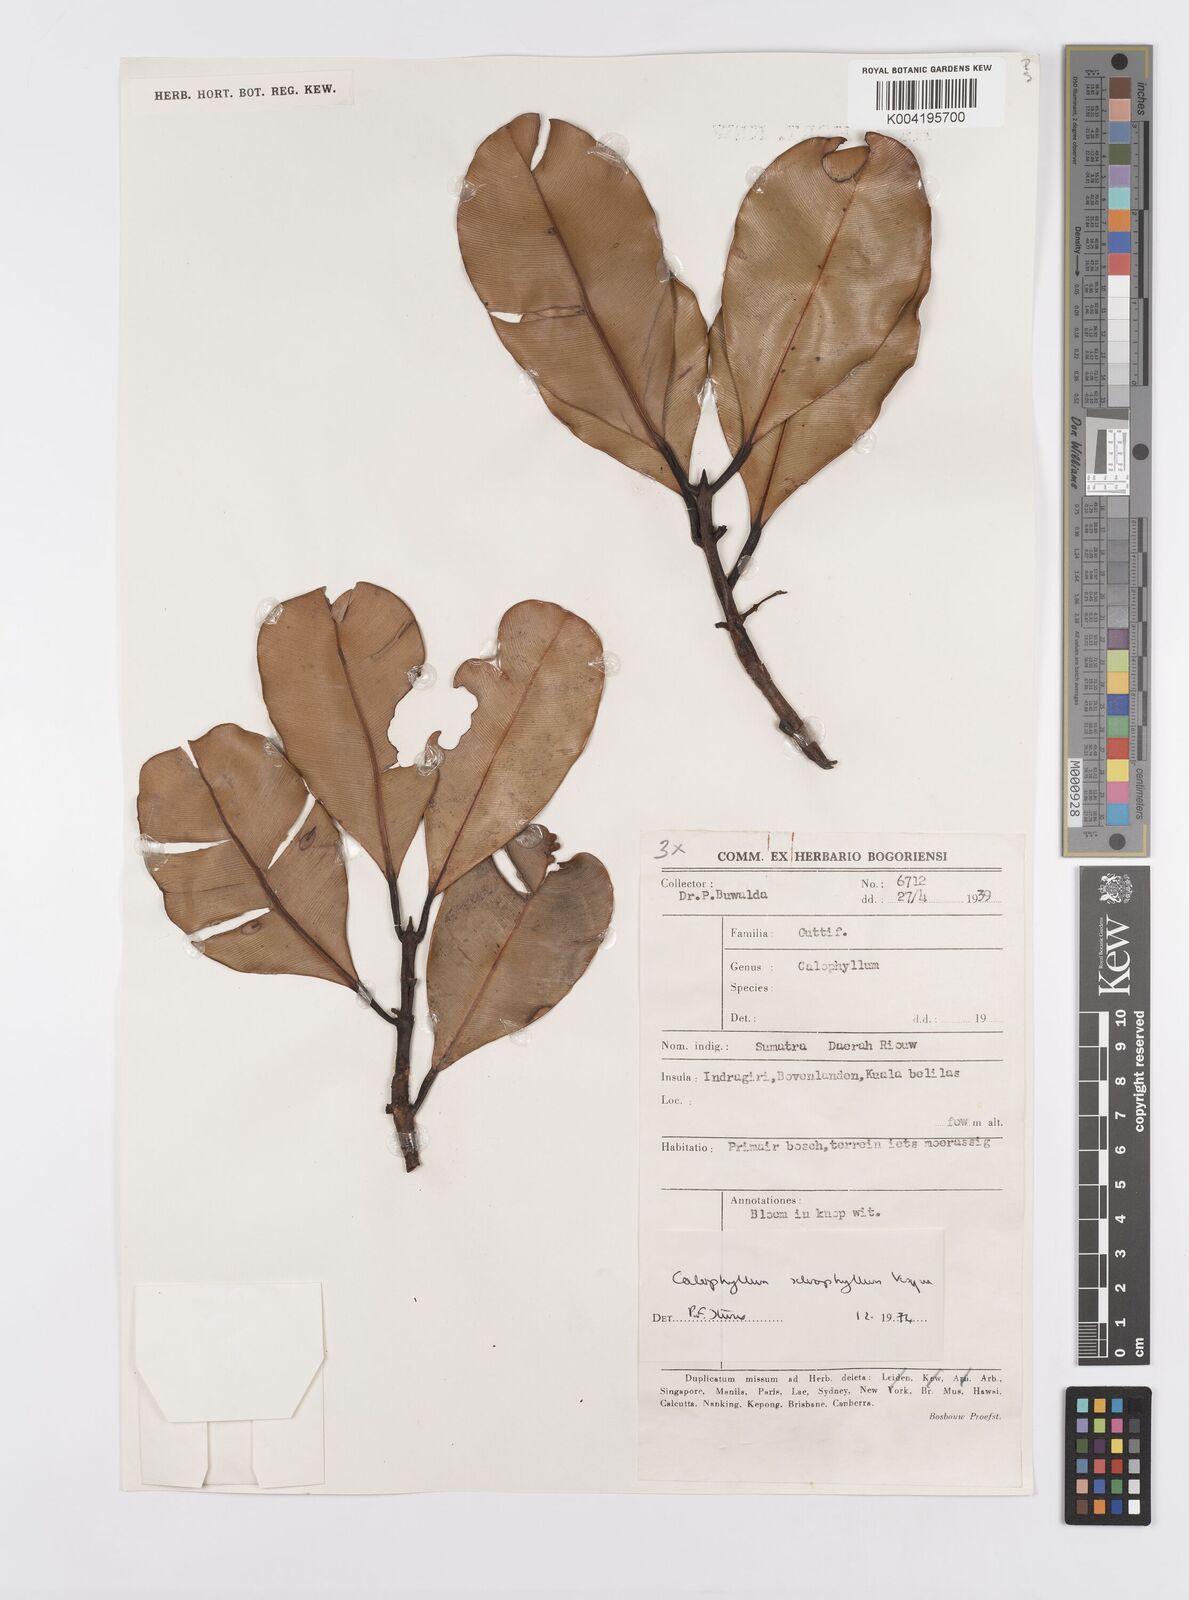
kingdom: Plantae
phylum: Tracheophyta
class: Magnoliopsida
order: Malpighiales
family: Calophyllaceae
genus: Calophyllum
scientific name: Calophyllum sclerophyllum
